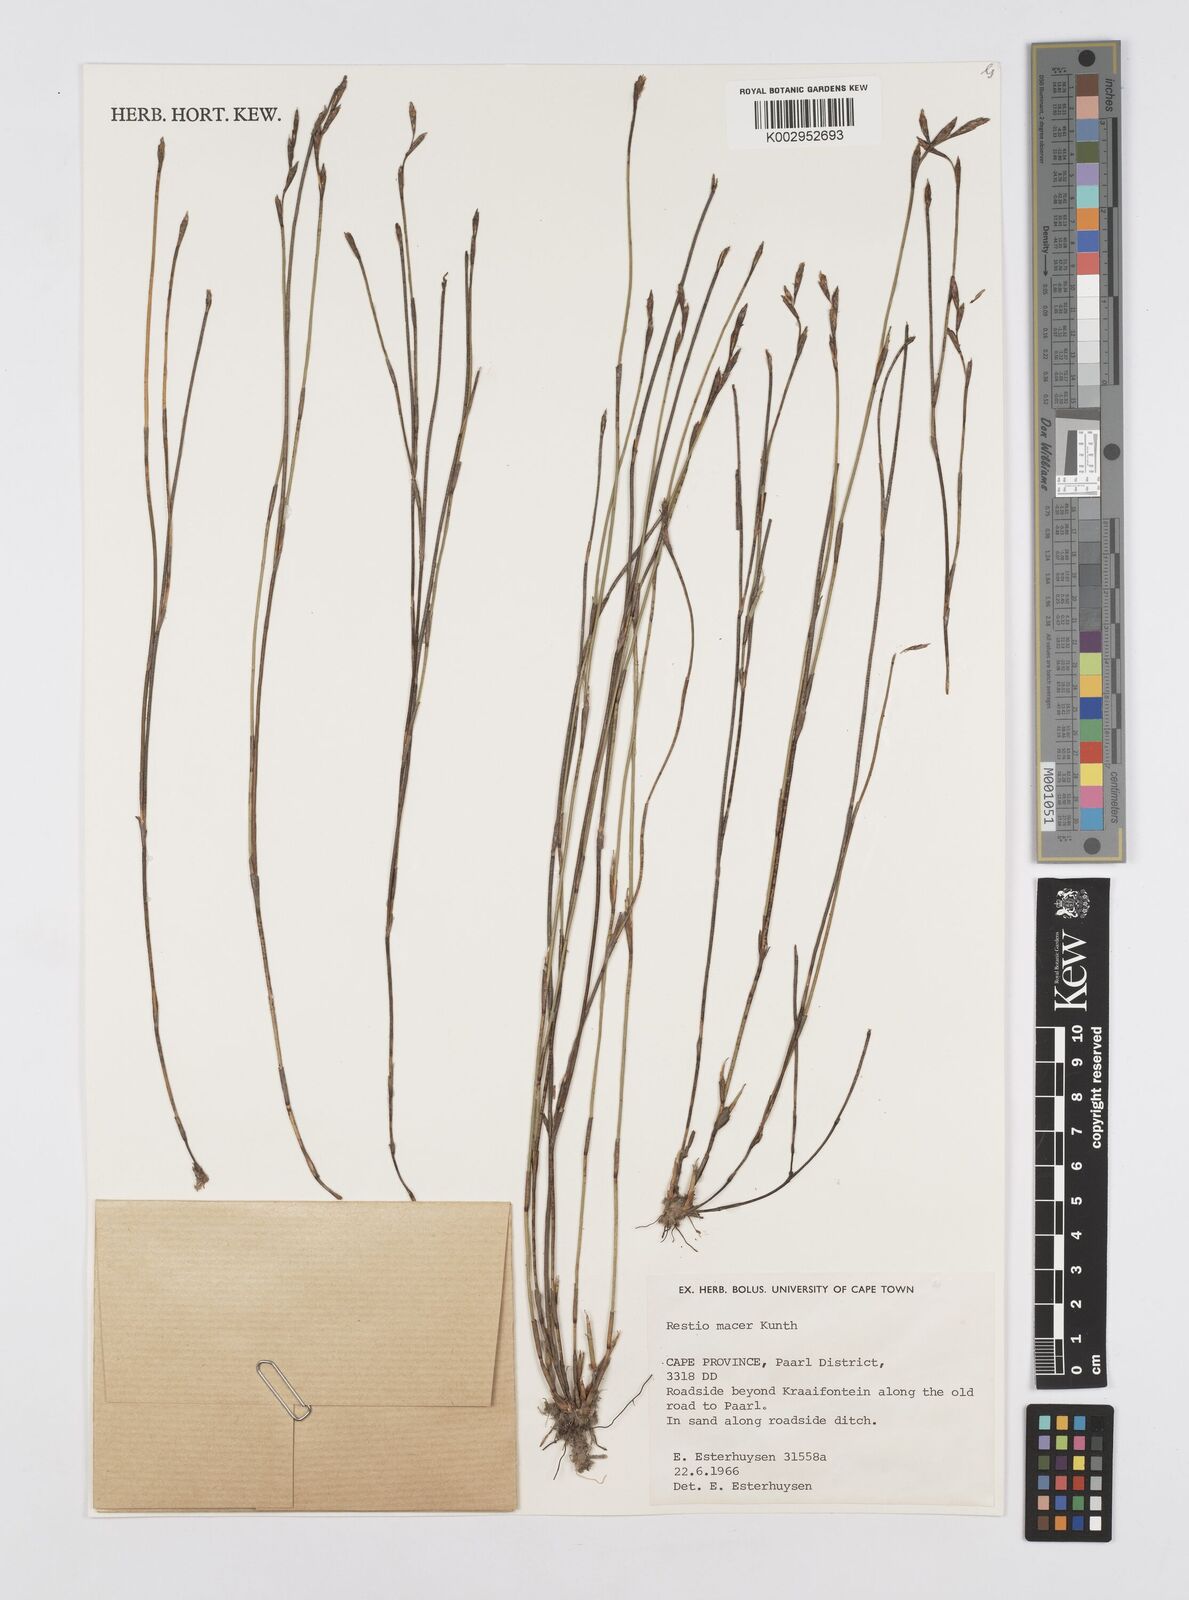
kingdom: Plantae
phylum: Tracheophyta
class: Liliopsida
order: Poales
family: Restionaceae
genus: Restio
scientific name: Restio macer
